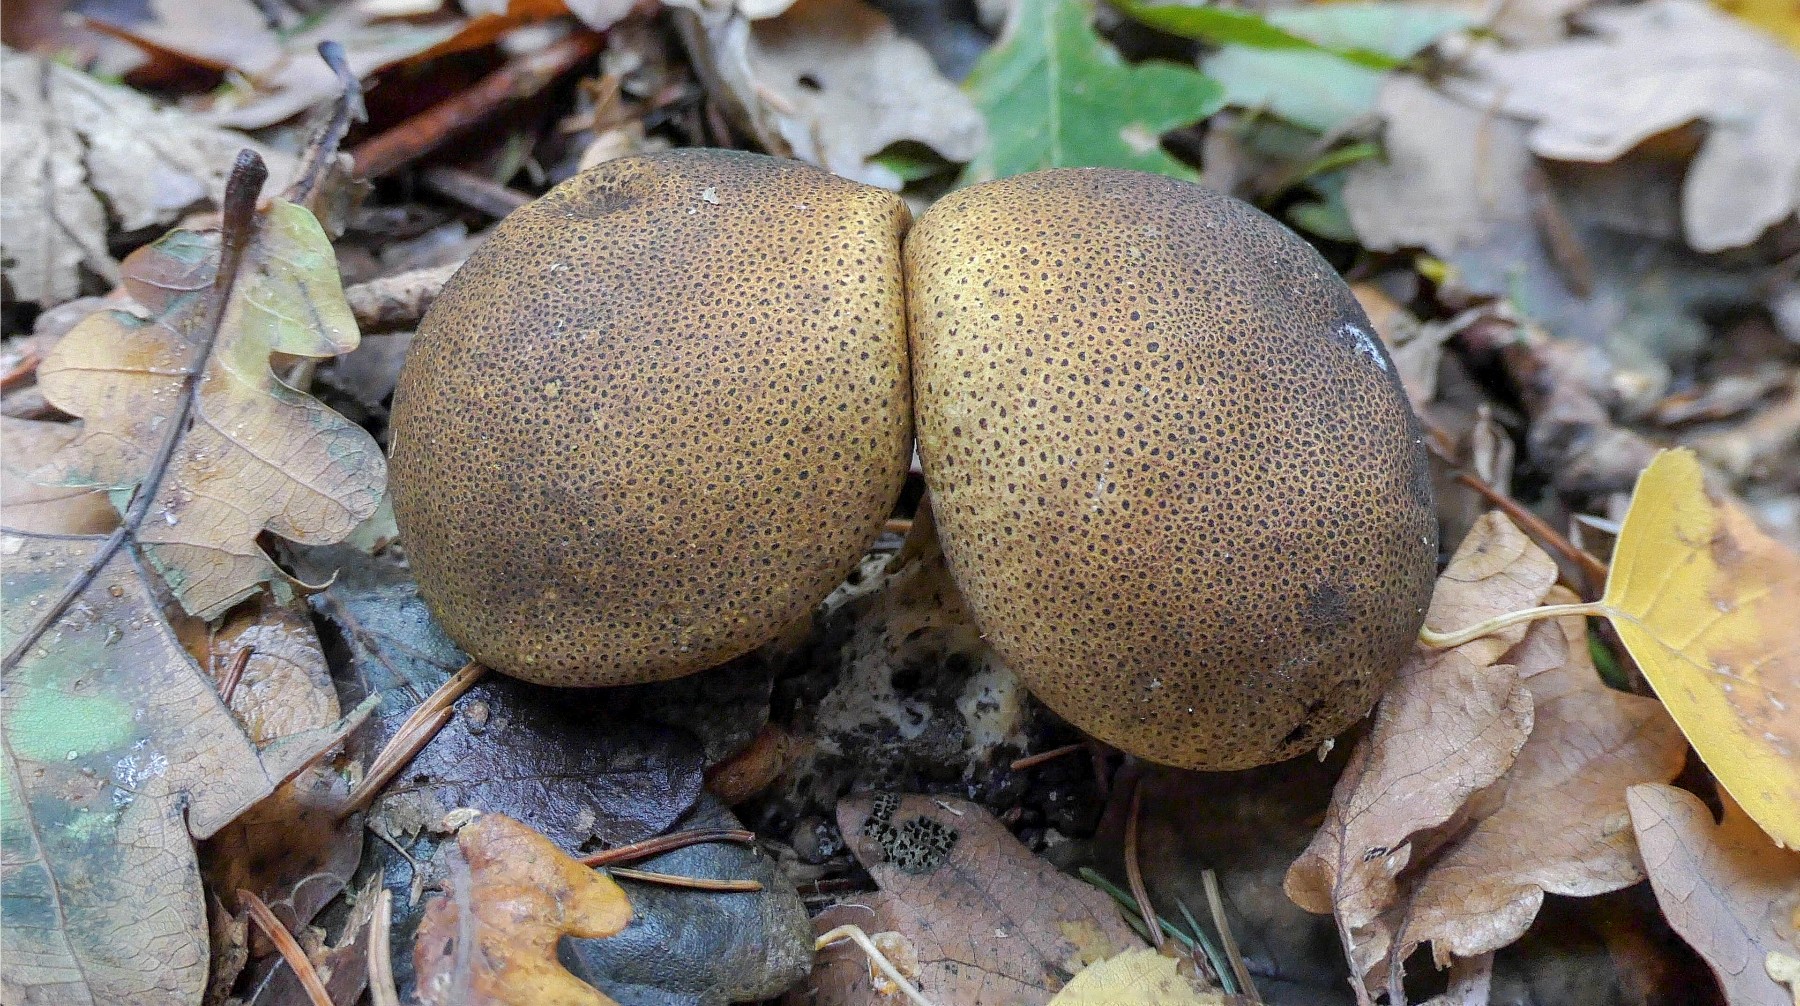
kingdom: Fungi
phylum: Basidiomycota
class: Agaricomycetes
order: Boletales
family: Sclerodermataceae
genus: Scleroderma
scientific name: Scleroderma areolatum
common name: plettet bruskbold
